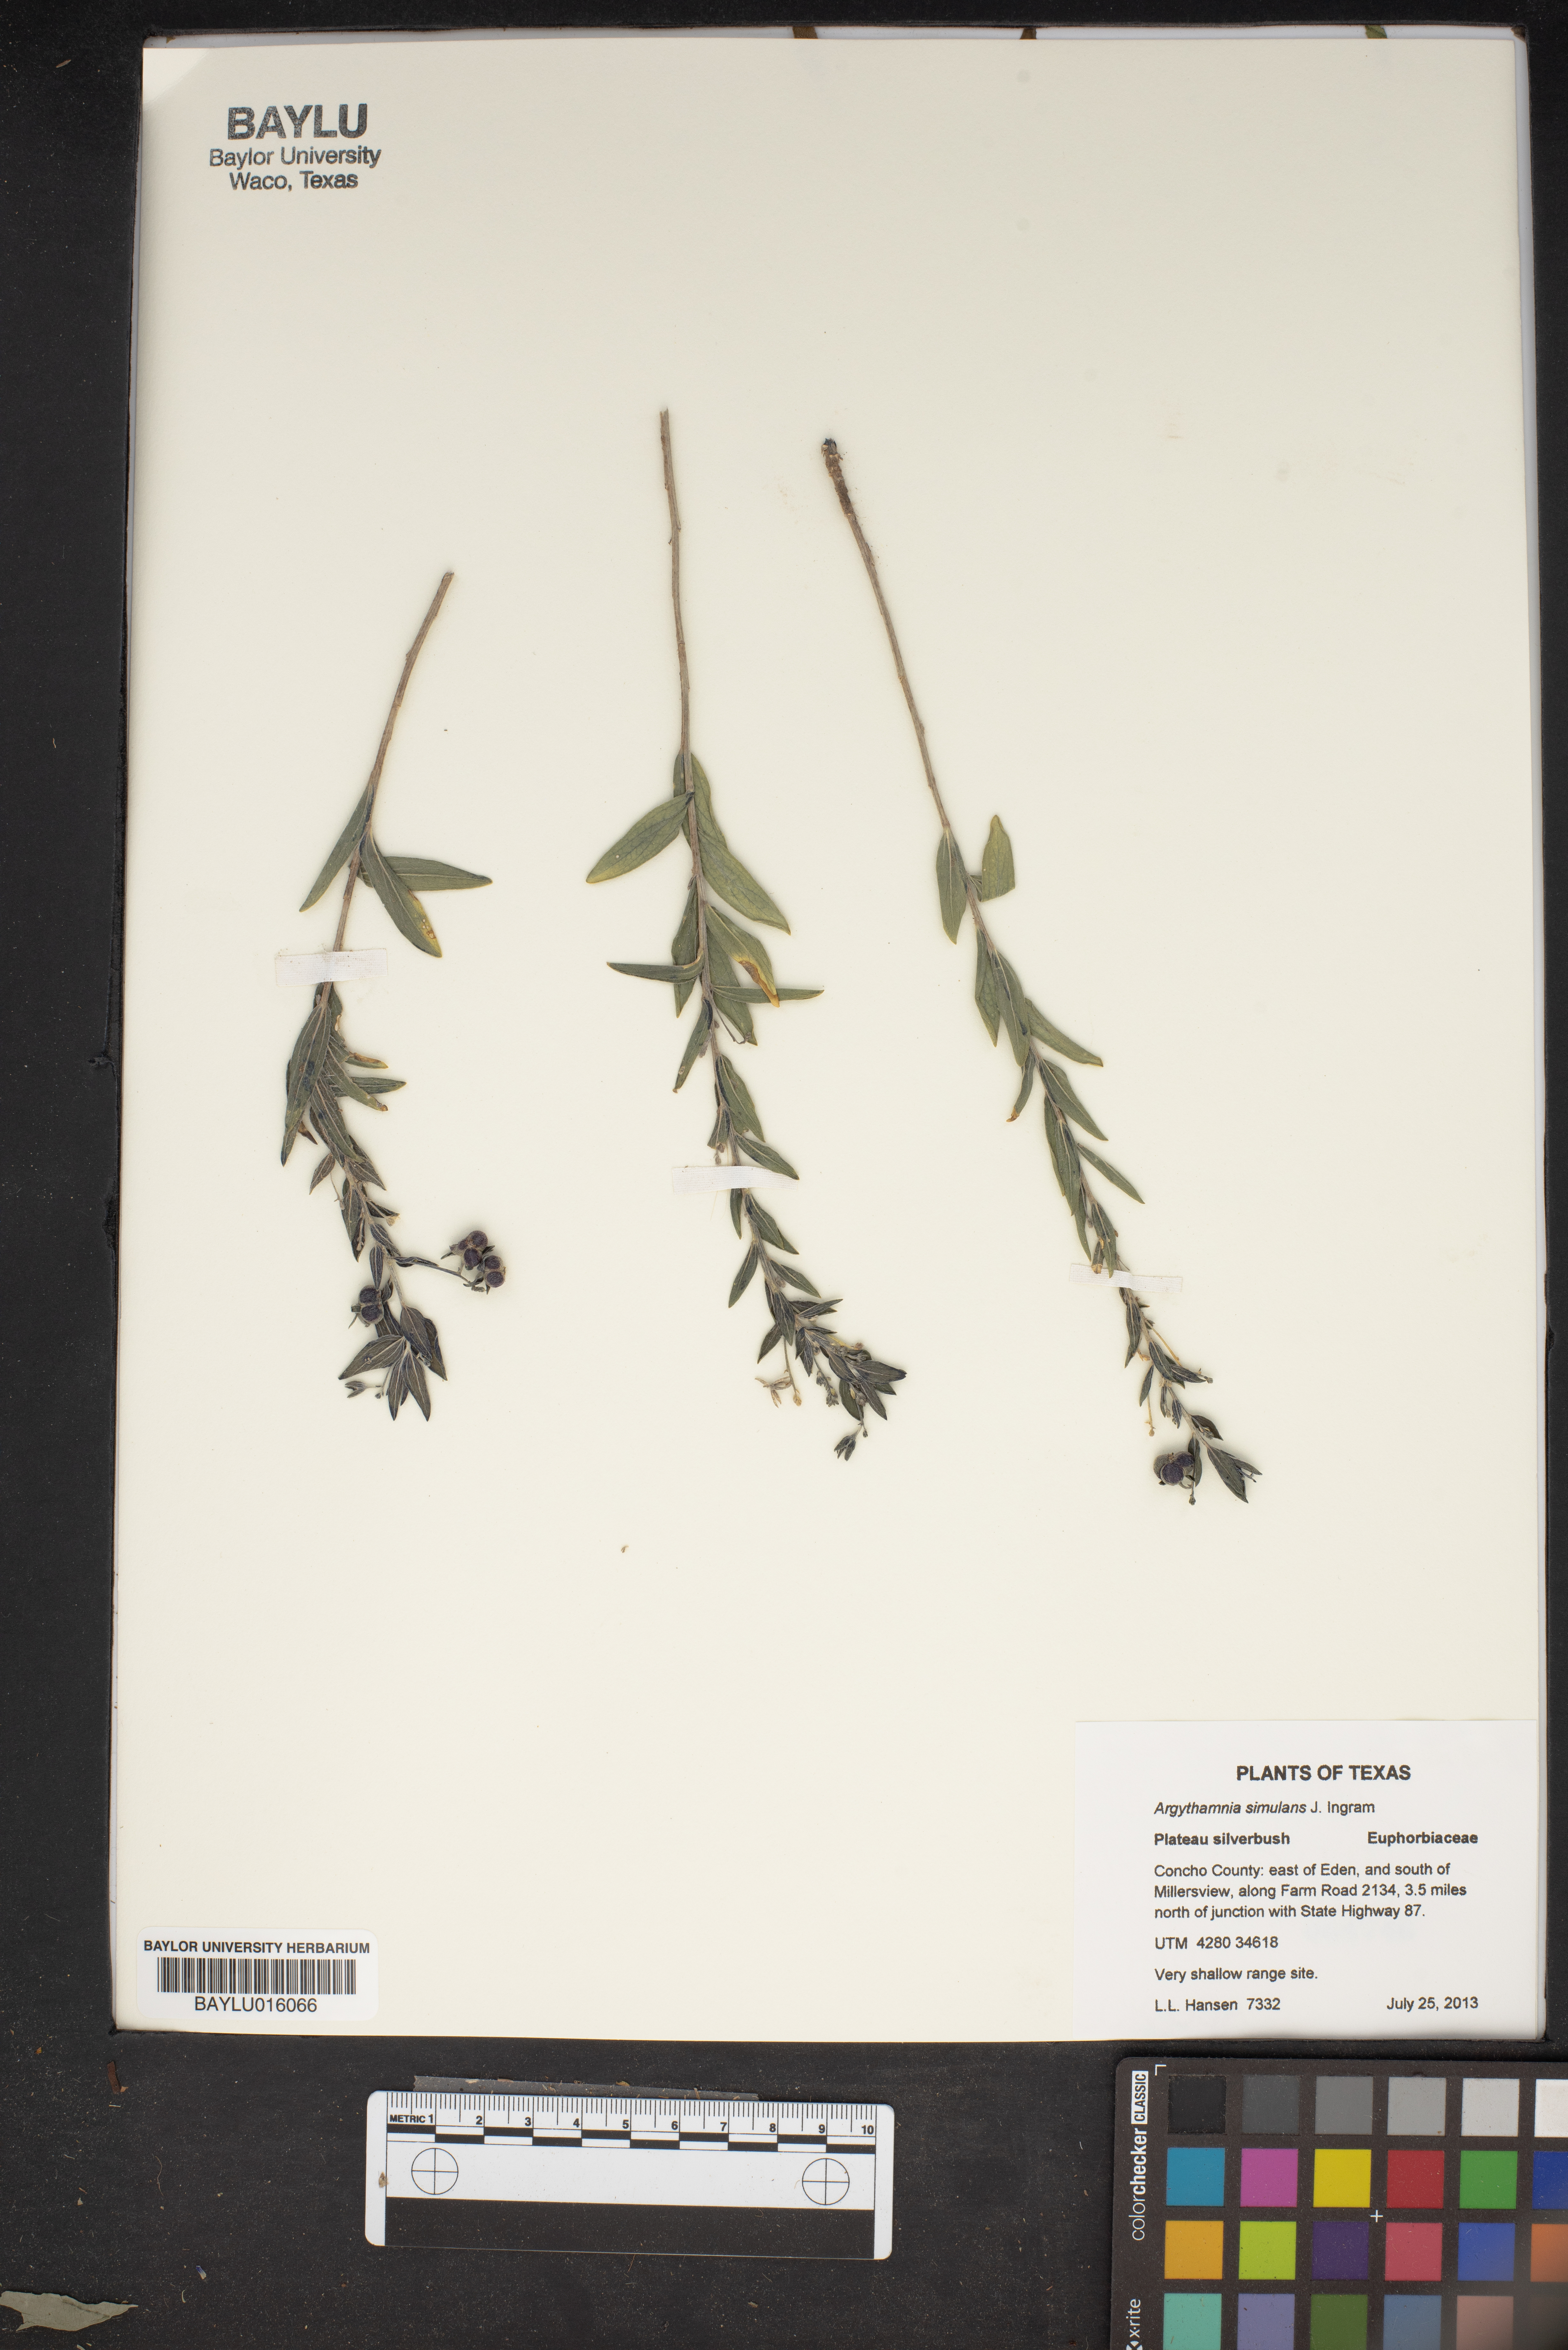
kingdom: Plantae
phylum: Tracheophyta
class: Magnoliopsida
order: Malpighiales
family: Euphorbiaceae
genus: Ditaxis
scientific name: Ditaxis simulans
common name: Plateau silverbush
